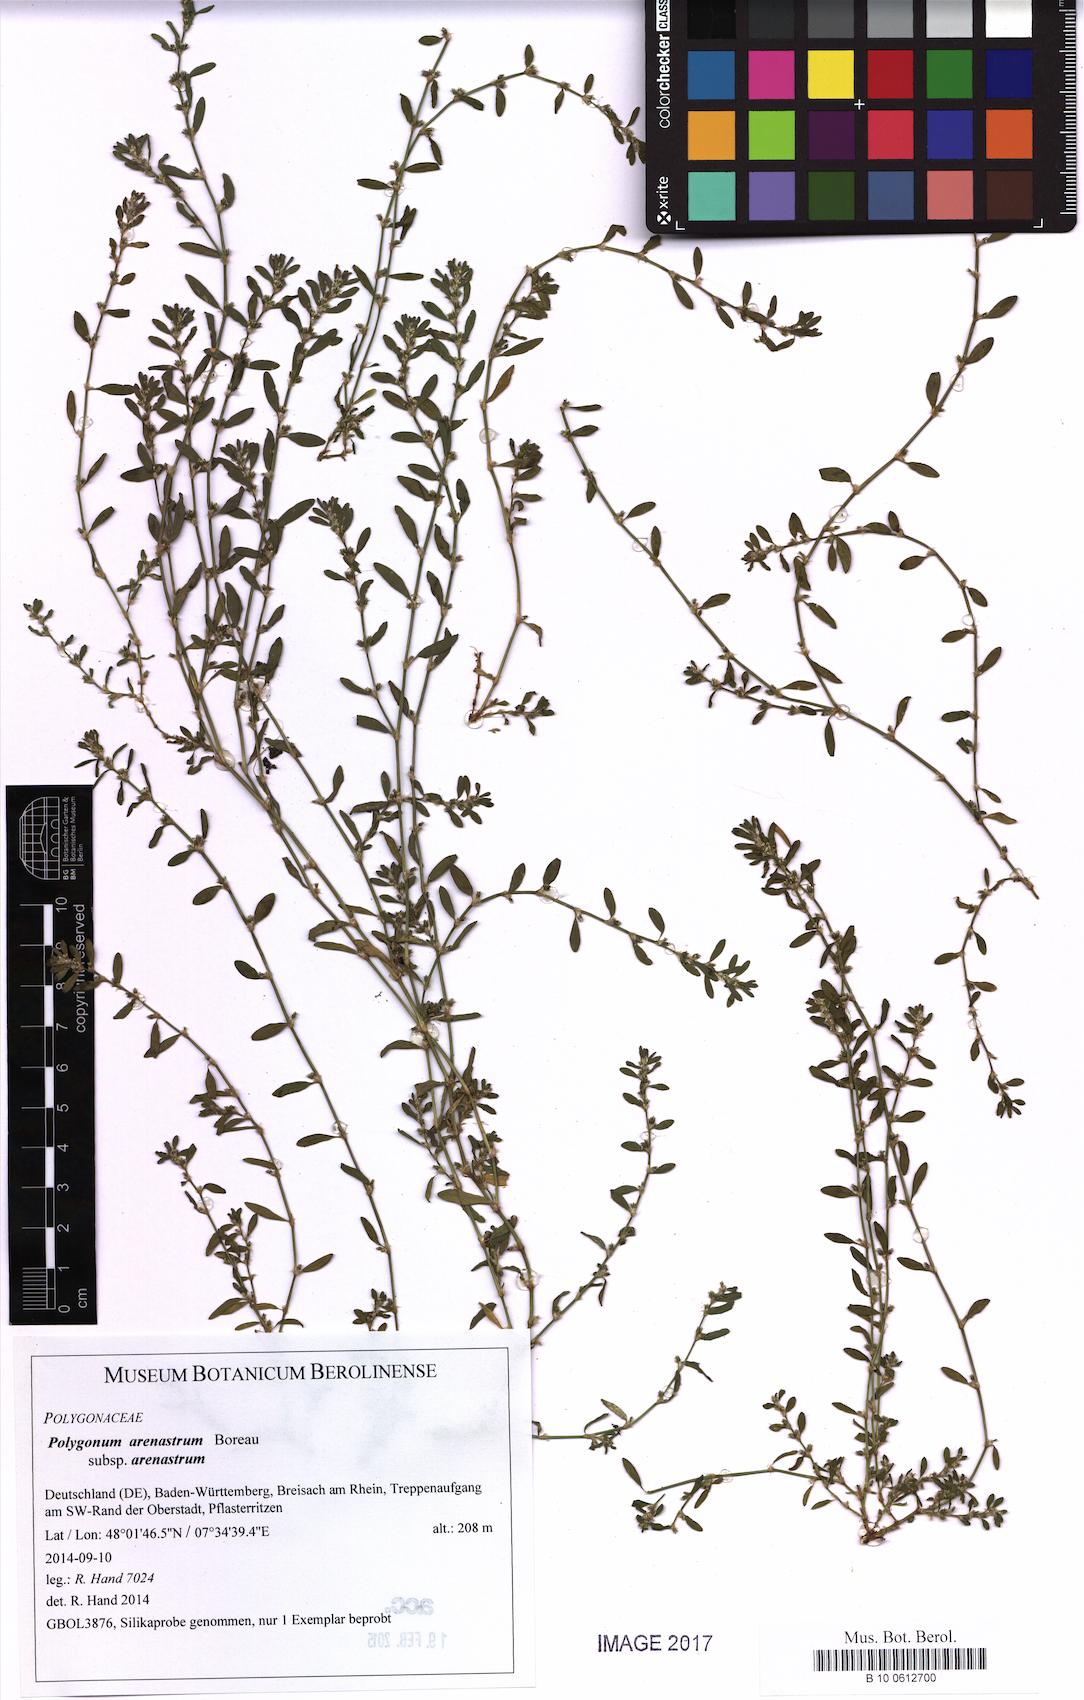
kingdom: Plantae
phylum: Tracheophyta
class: Magnoliopsida
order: Caryophyllales
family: Polygonaceae
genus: Polygonum
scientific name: Polygonum arenastrum
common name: Equal-leaved knotgrass
